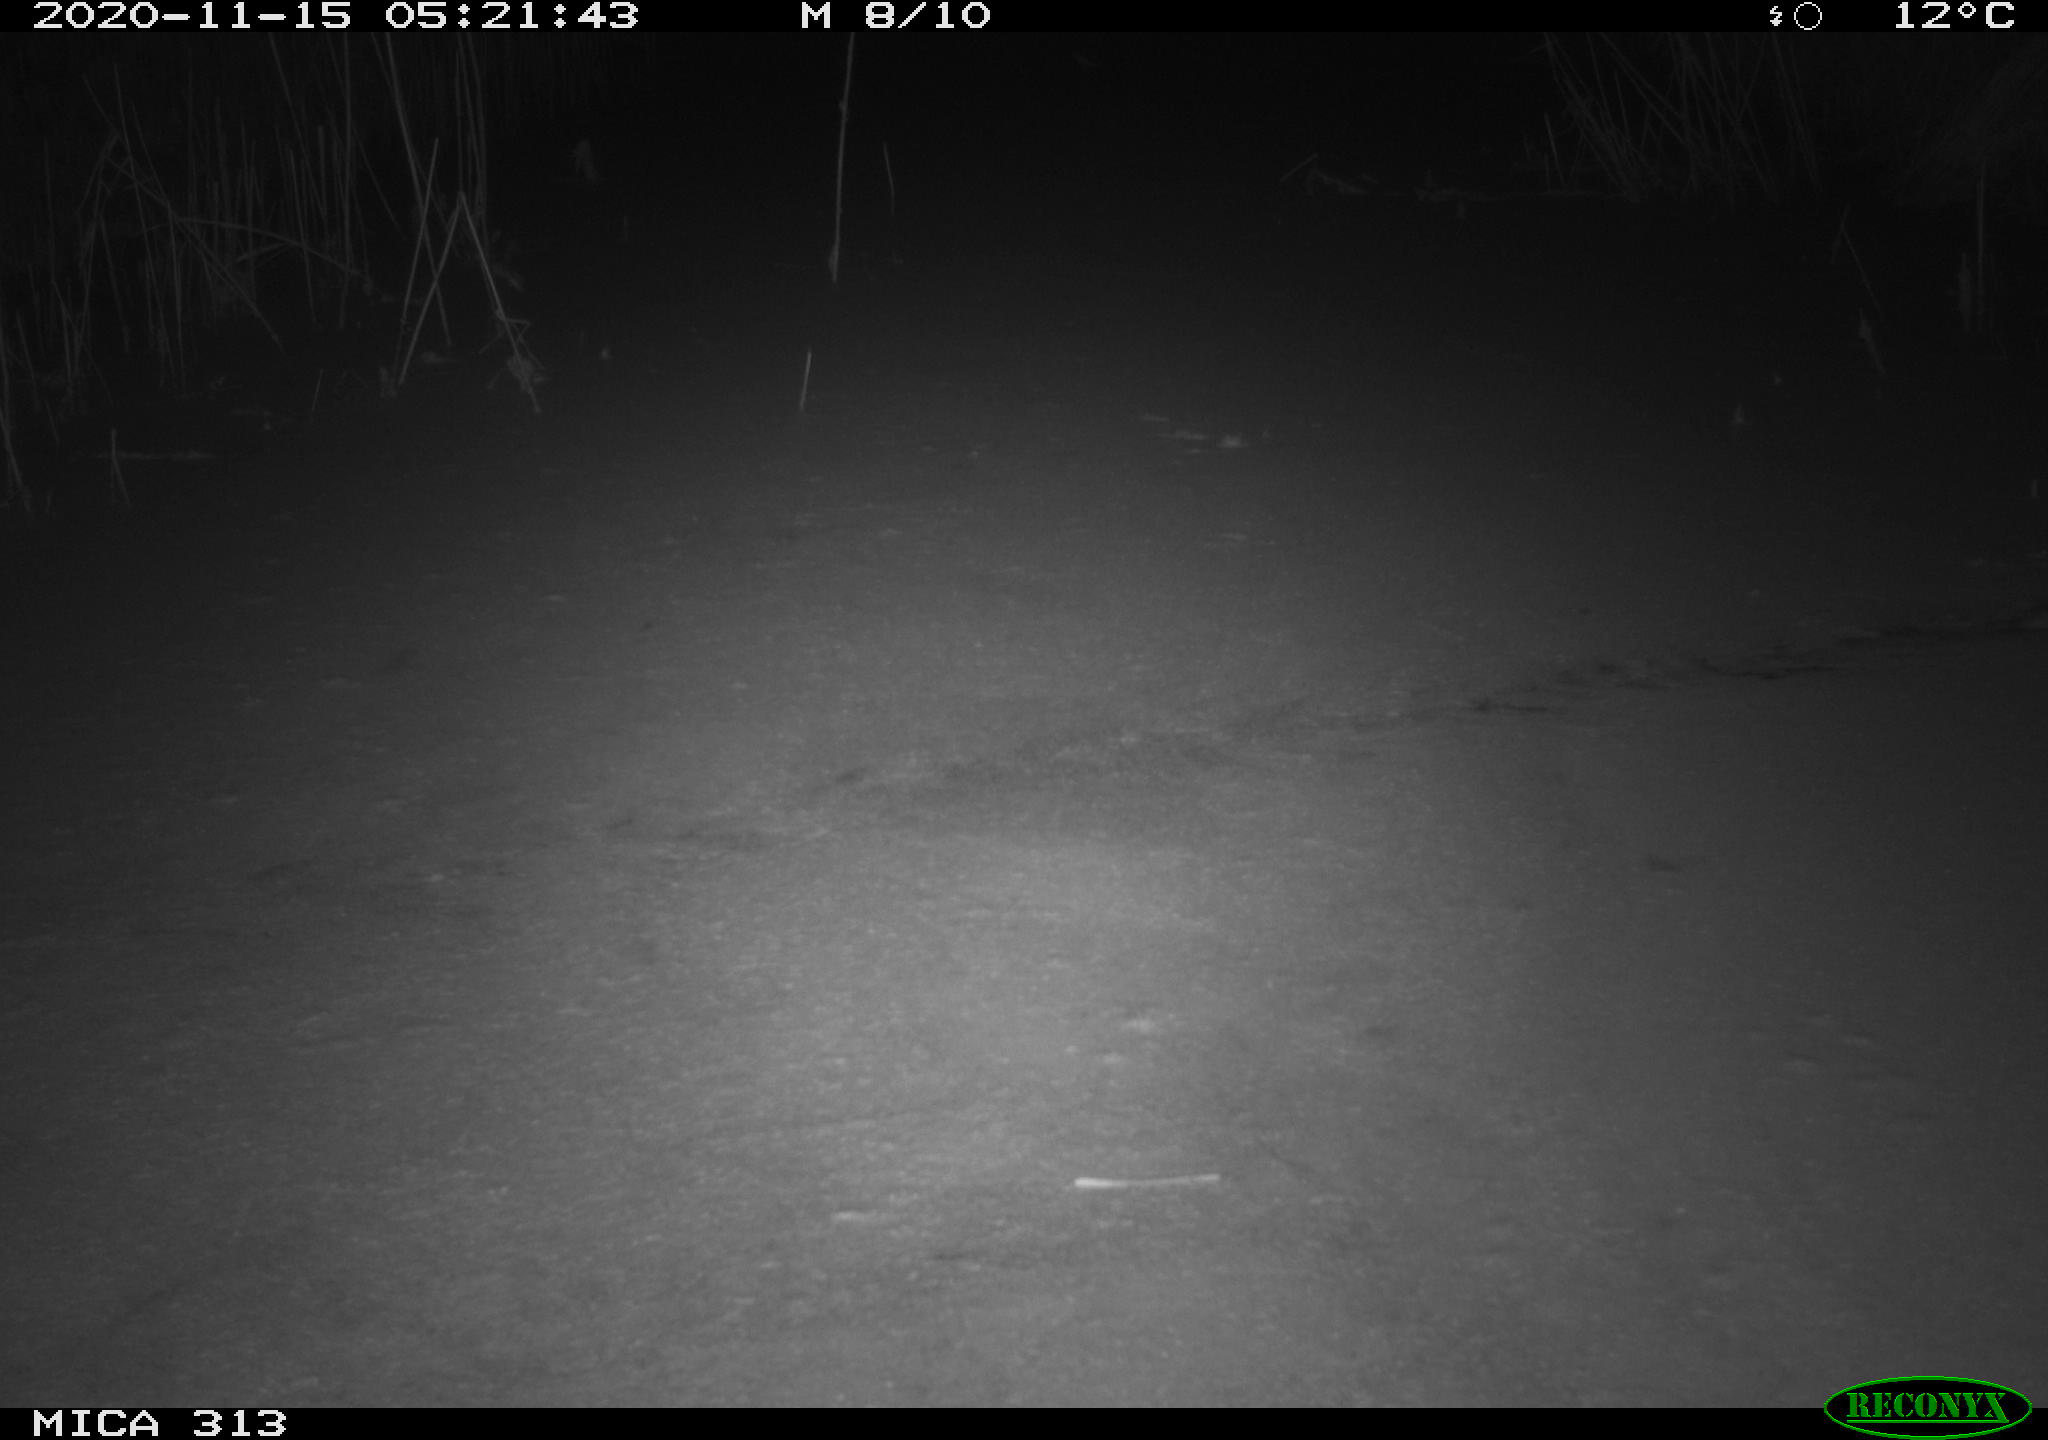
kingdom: Animalia
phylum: Chordata
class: Mammalia
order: Rodentia
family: Muridae
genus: Rattus
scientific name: Rattus norvegicus
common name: Brown rat
